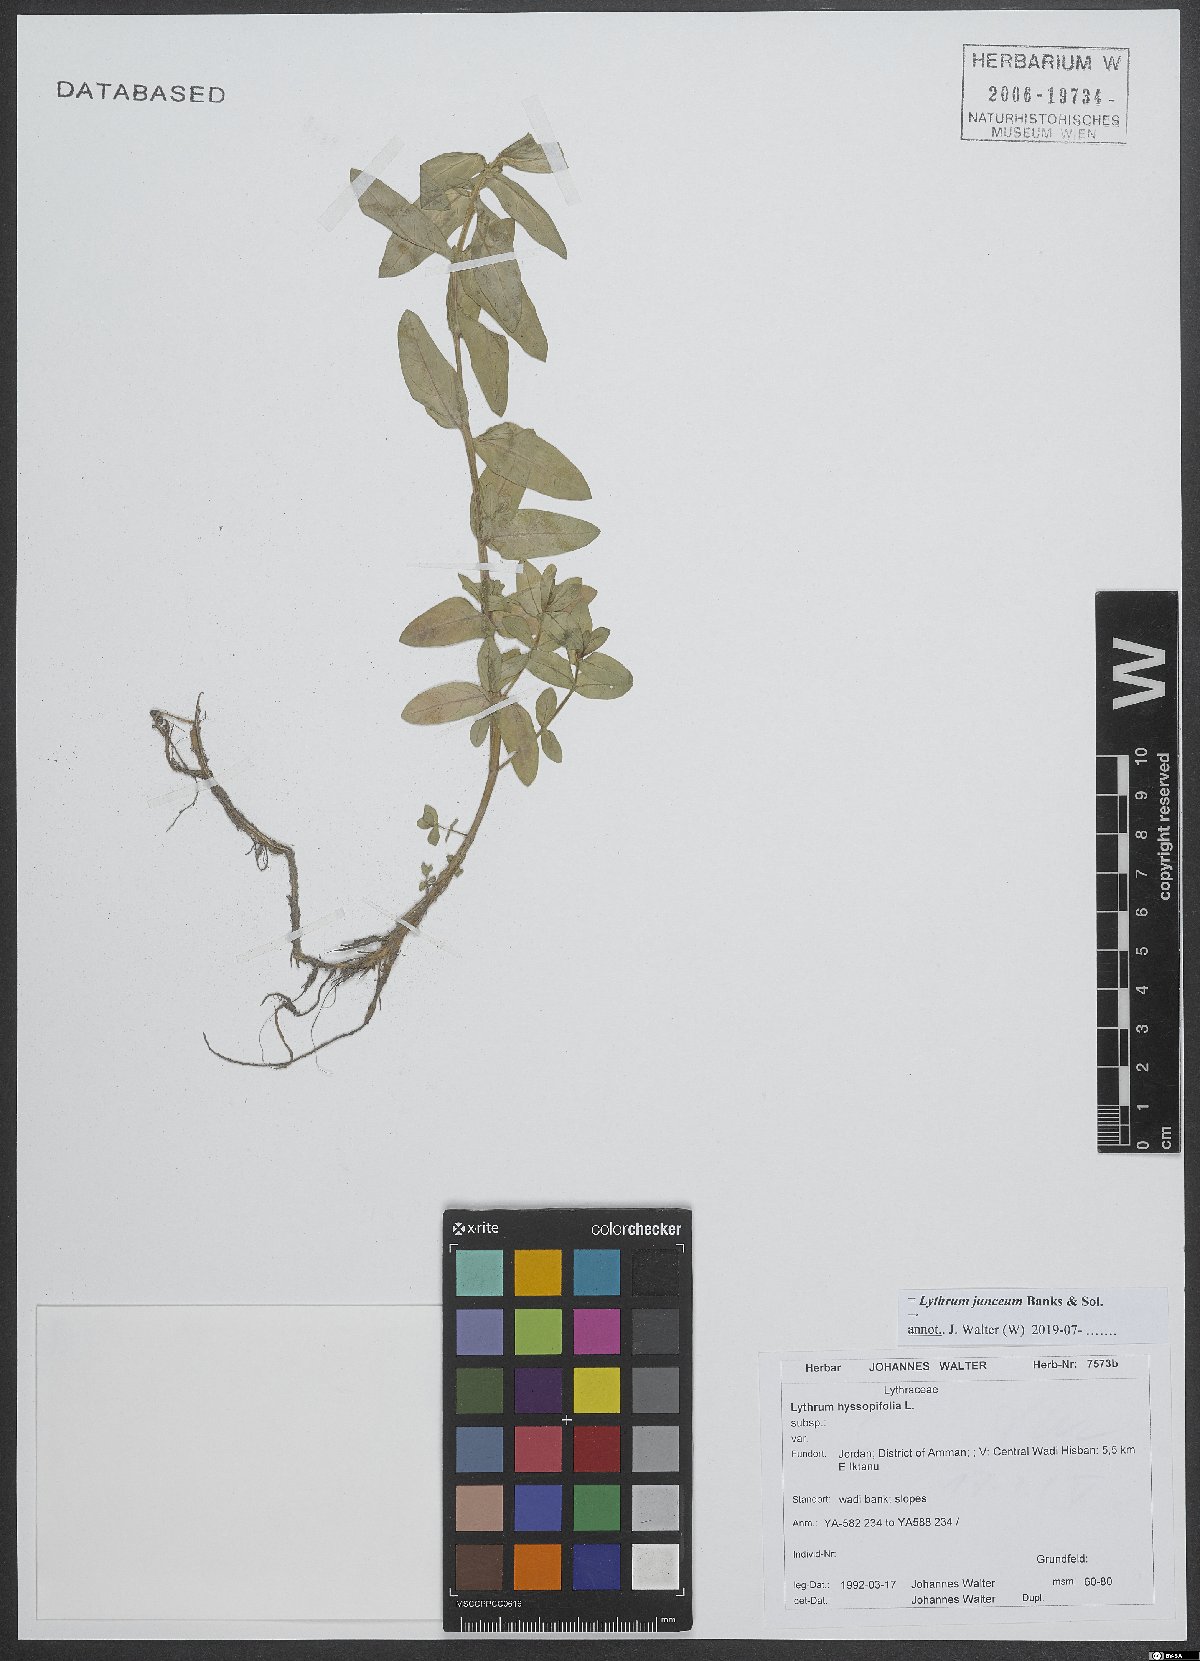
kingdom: Plantae
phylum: Tracheophyta
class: Magnoliopsida
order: Myrtales
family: Lythraceae
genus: Lythrum
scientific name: Lythrum junceum
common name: False grass-poly
